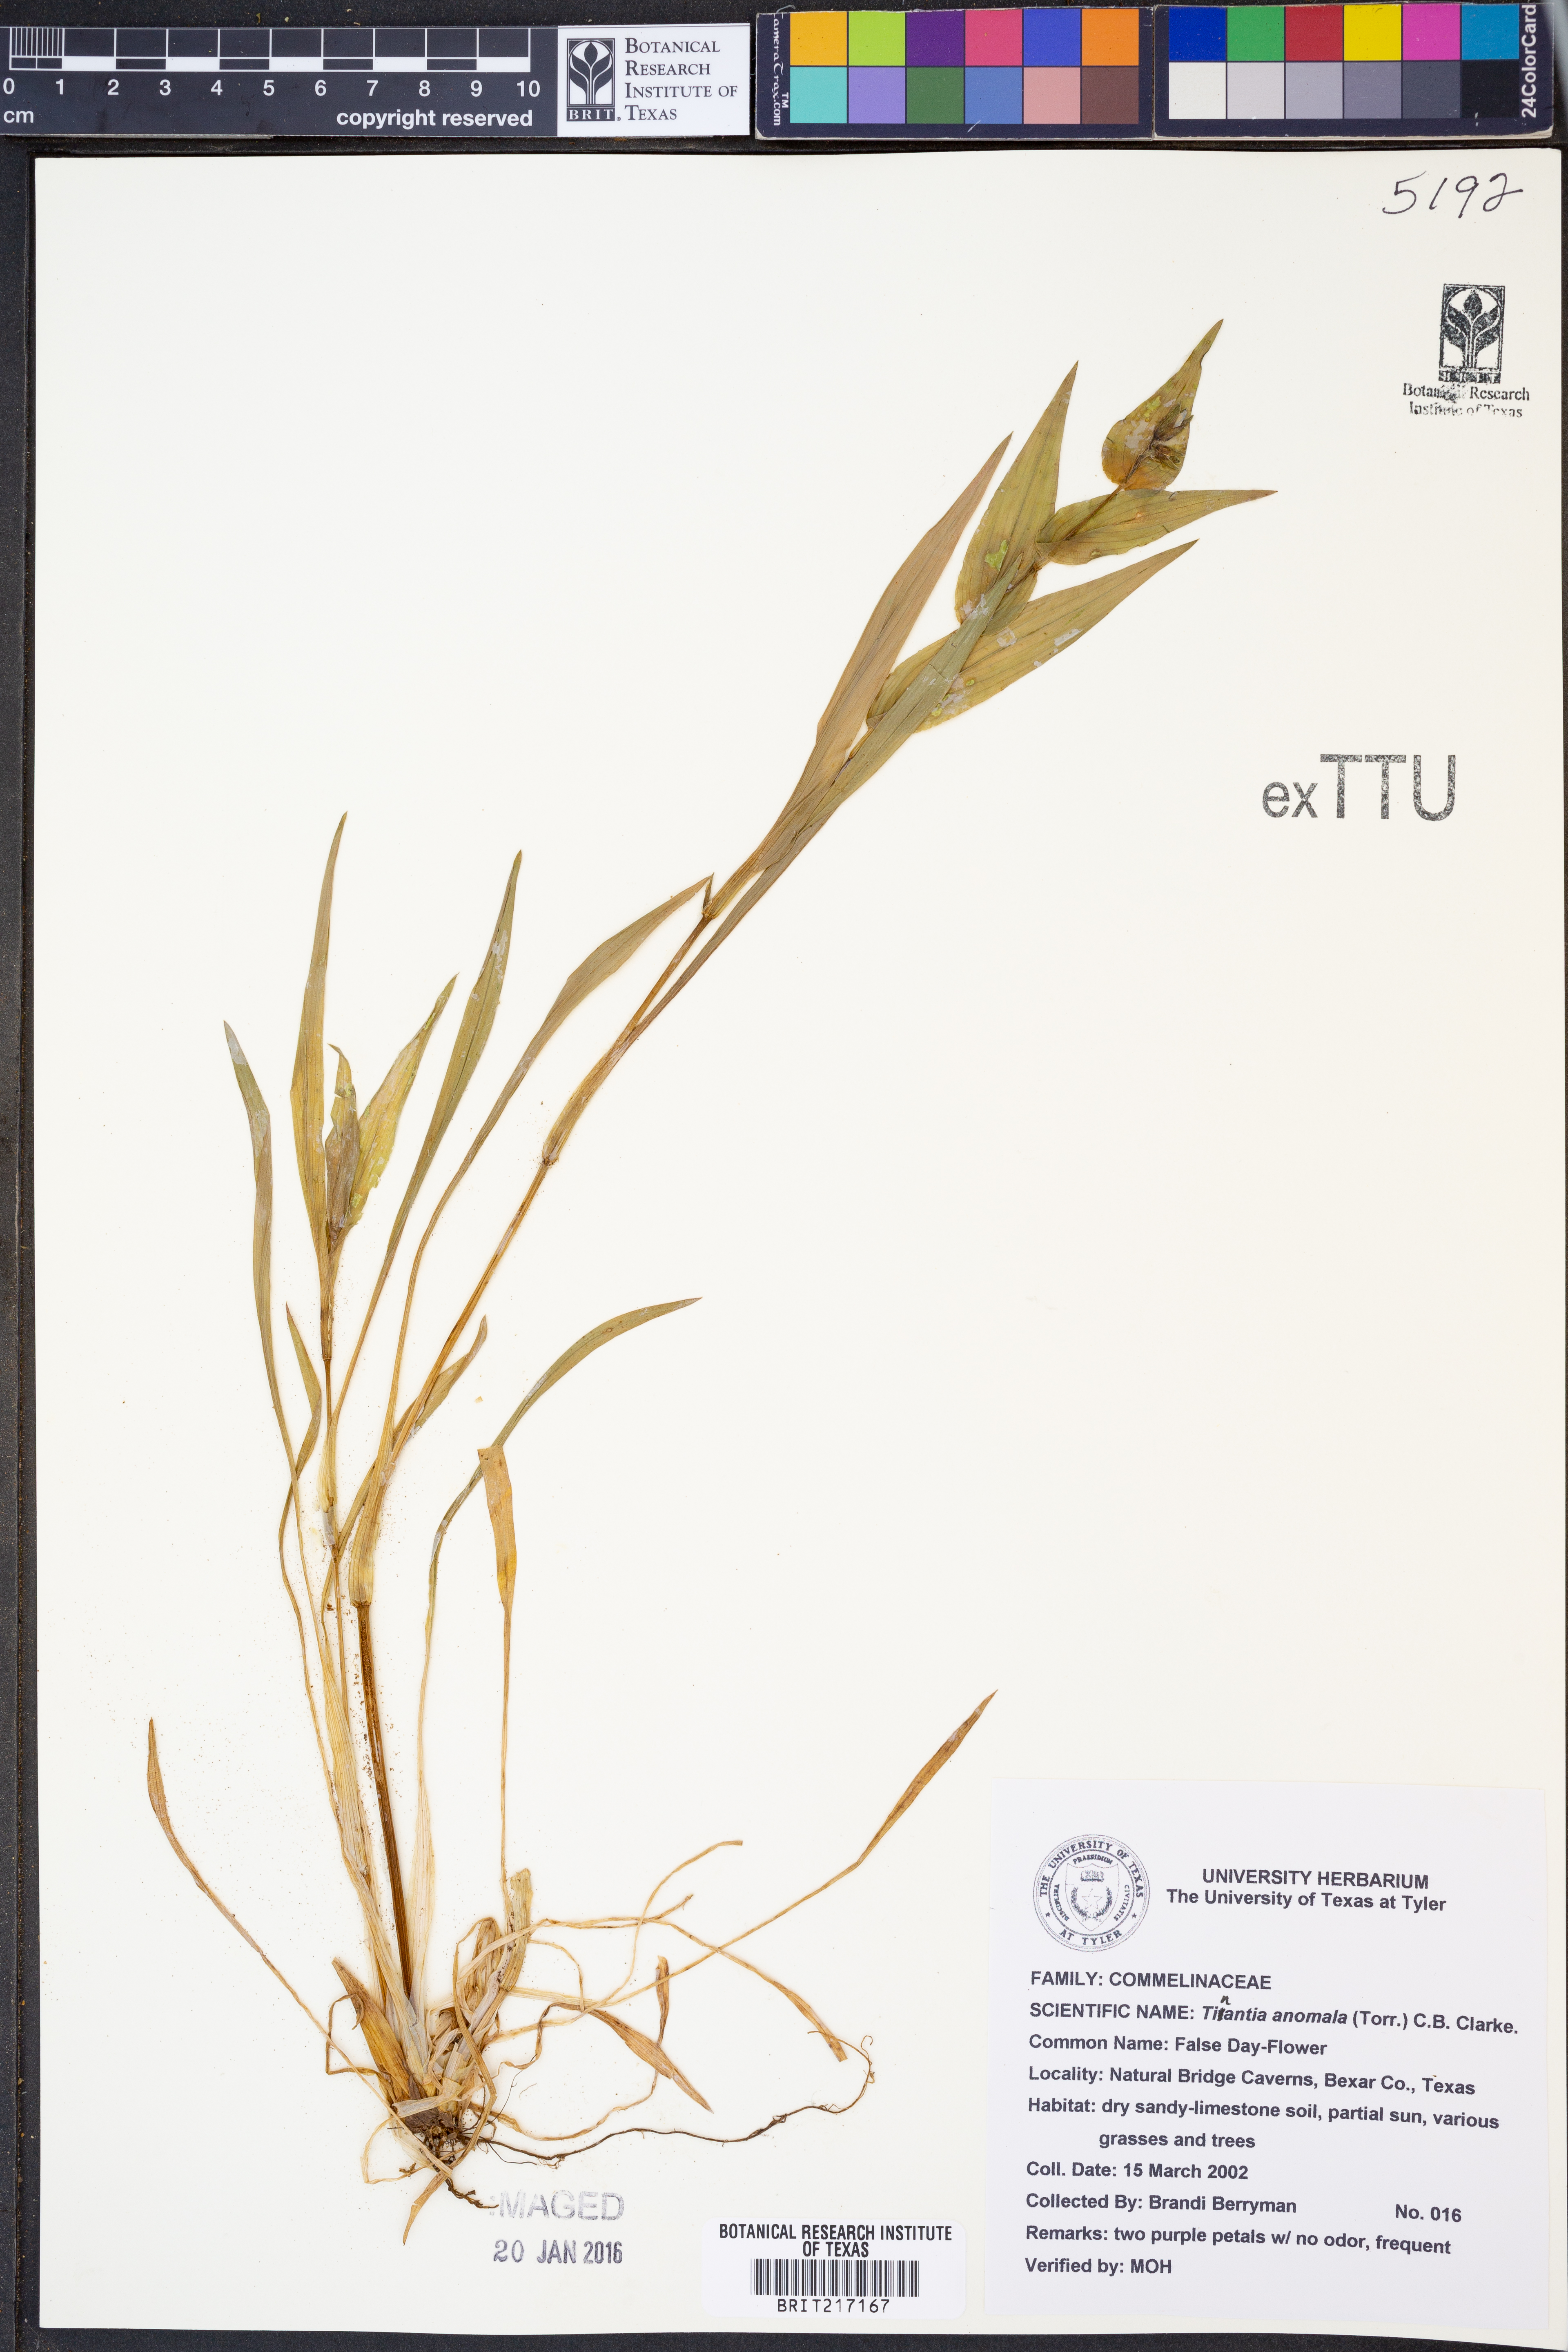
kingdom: Plantae
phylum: Tracheophyta
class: Liliopsida
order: Commelinales
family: Commelinaceae
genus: Tinantia
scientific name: Tinantia anomala
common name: False dayflower
